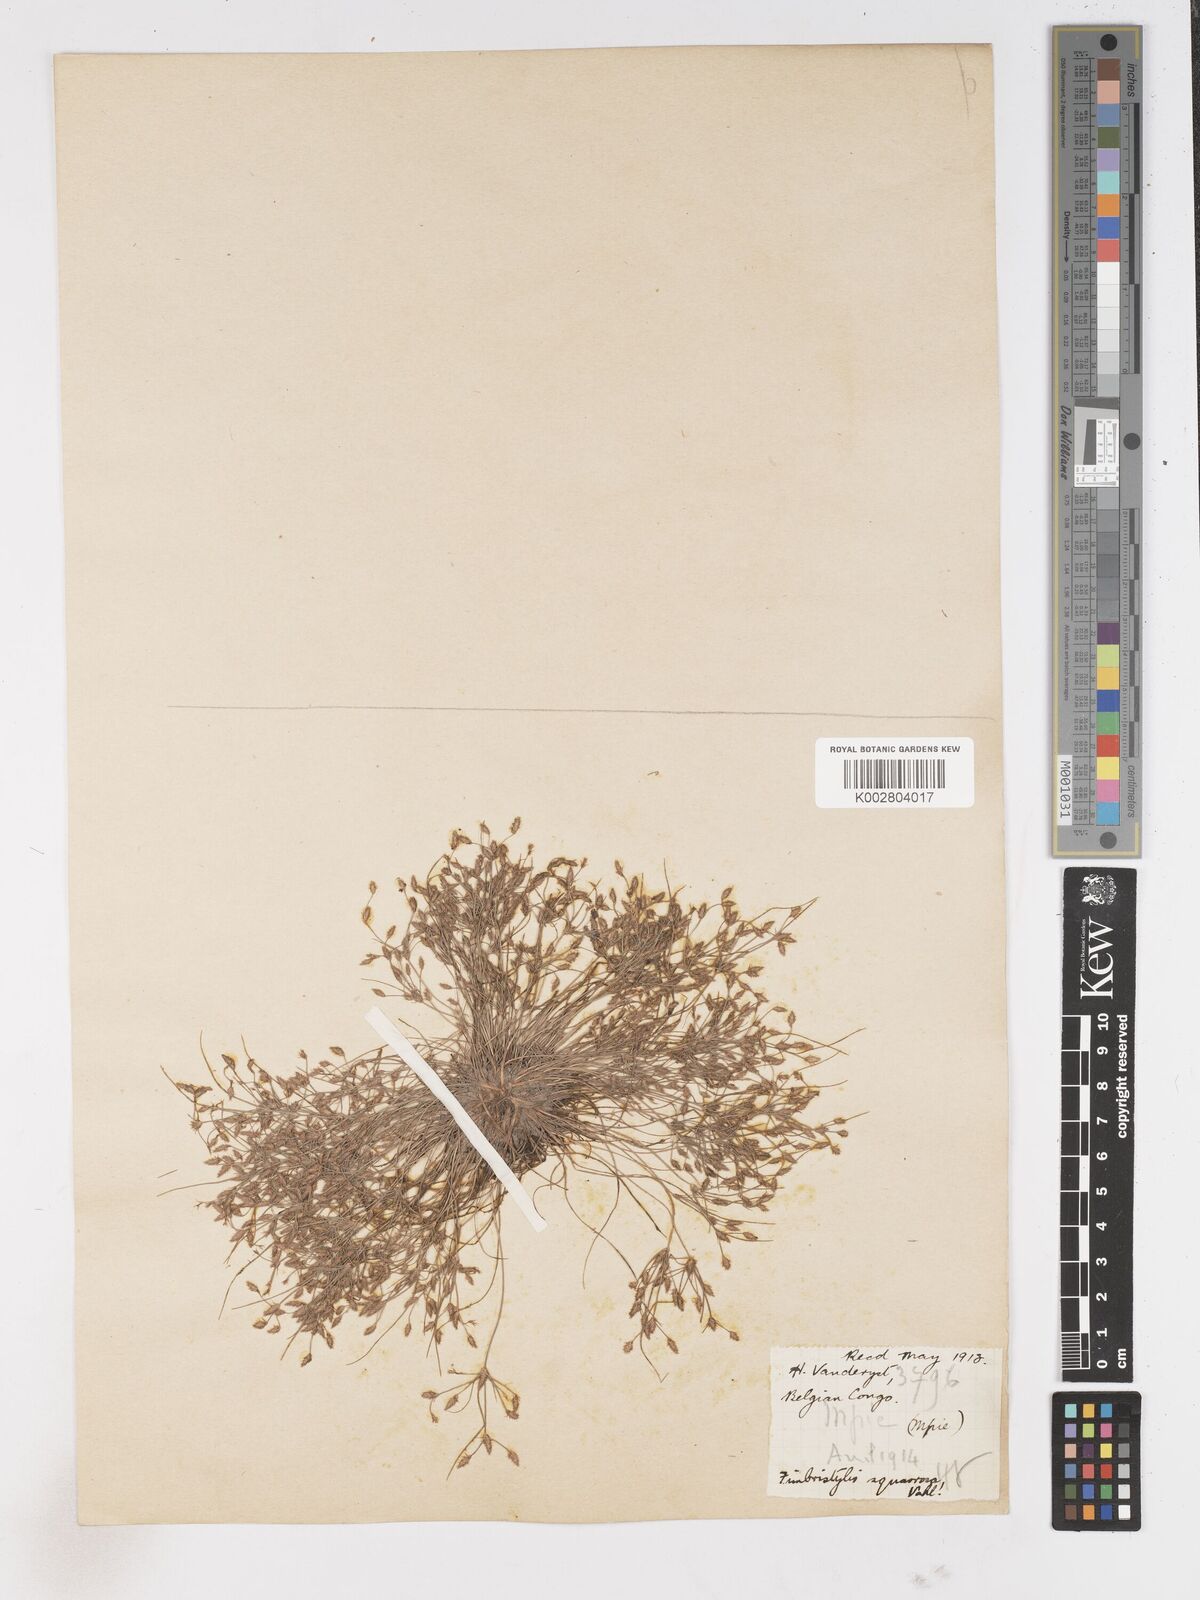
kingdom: Plantae
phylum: Tracheophyta
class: Liliopsida
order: Poales
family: Cyperaceae
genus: Fimbristylis
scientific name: Fimbristylis squarrosa
